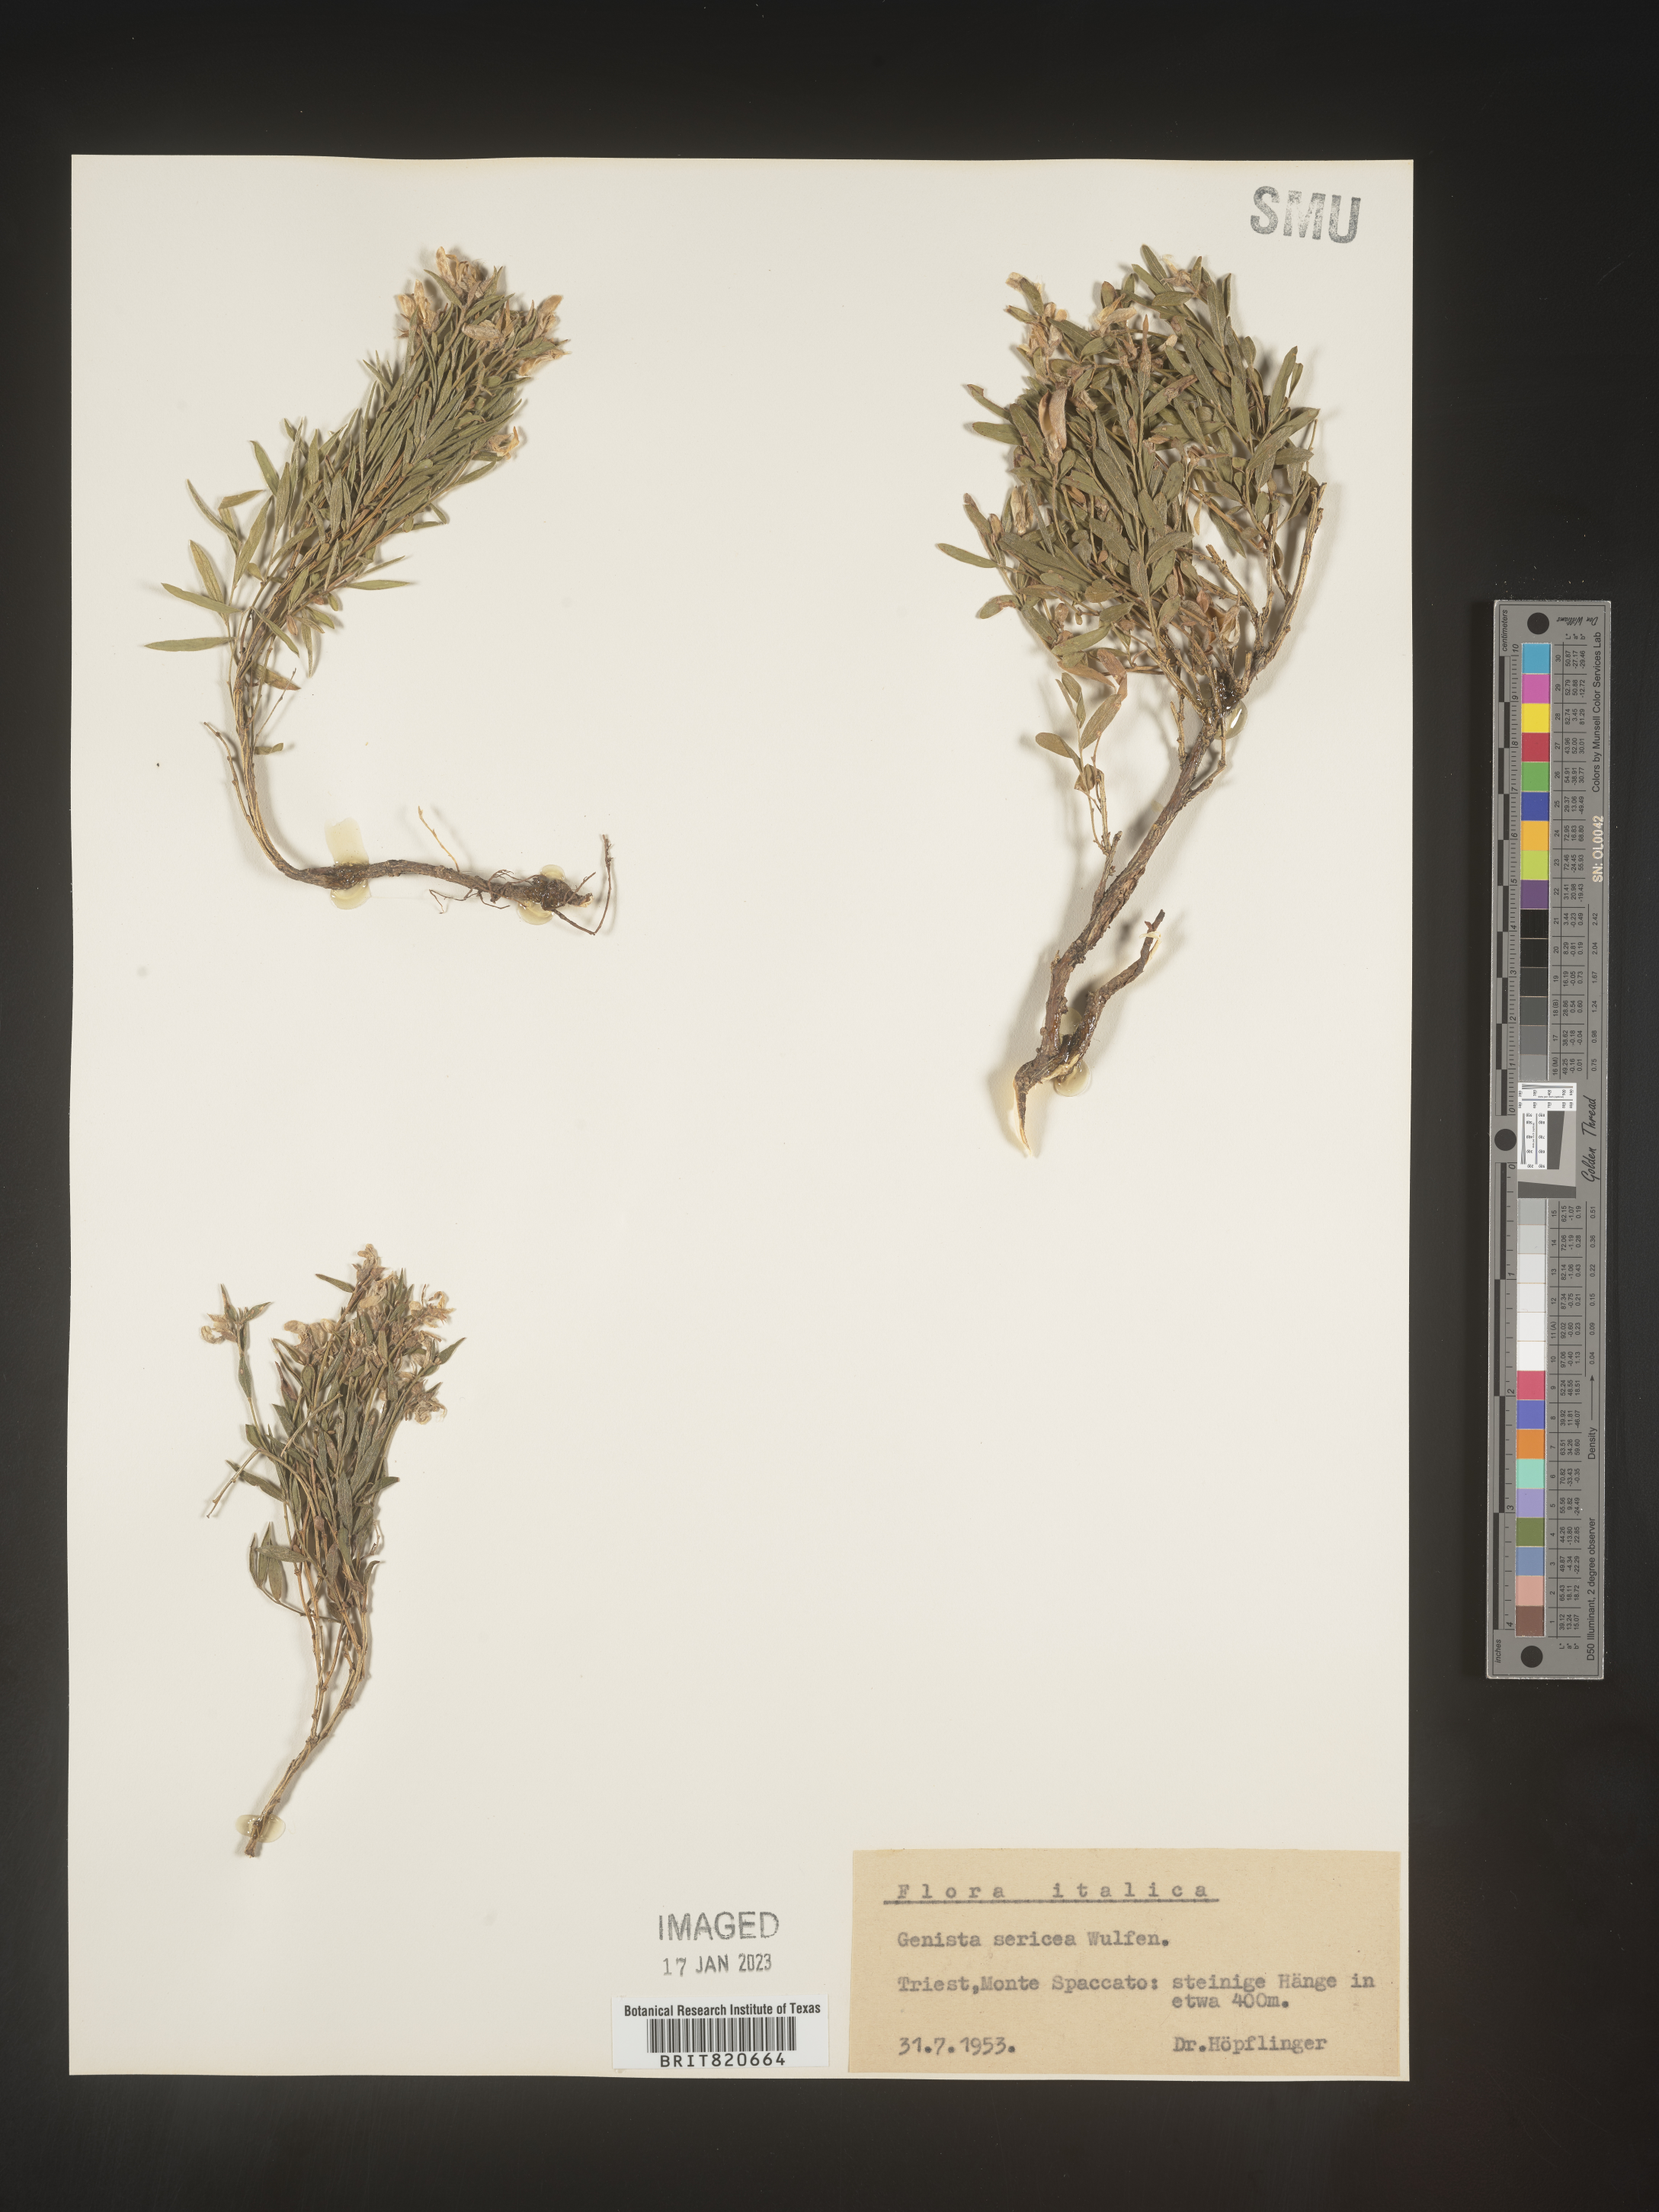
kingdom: Plantae
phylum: Tracheophyta
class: Magnoliopsida
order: Fabales
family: Fabaceae
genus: Genista
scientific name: Genista
